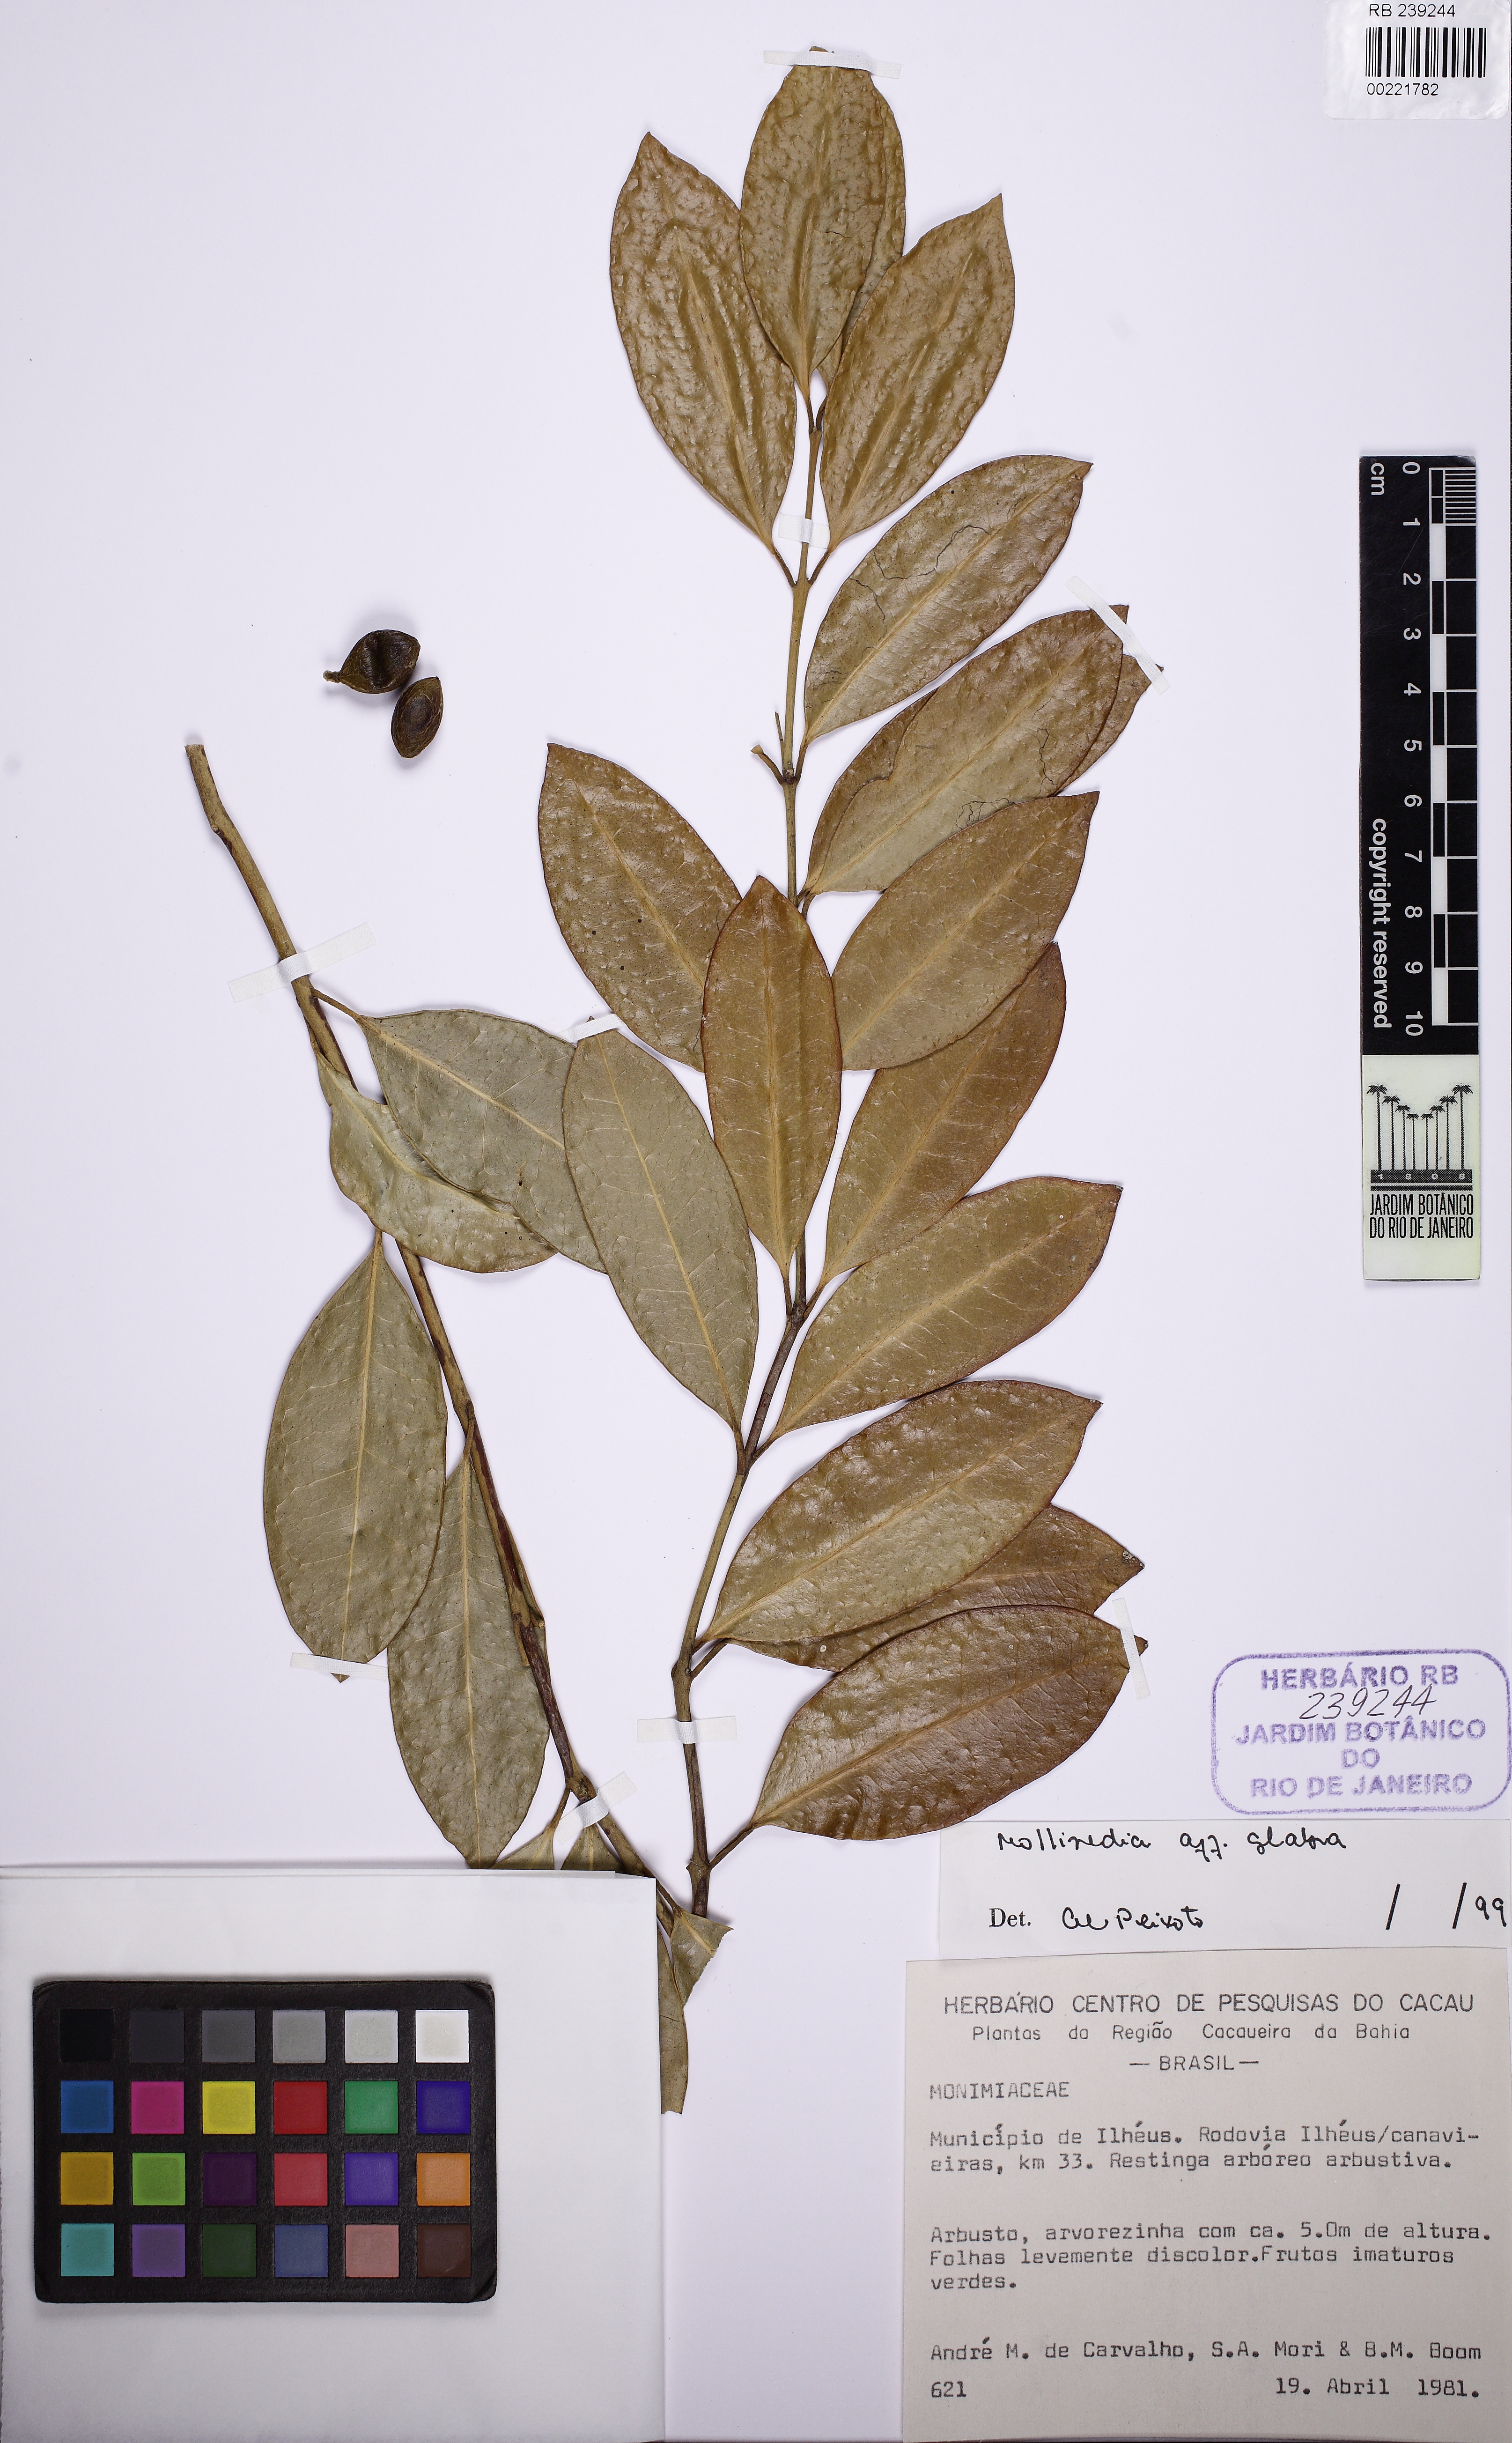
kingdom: Plantae
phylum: Tracheophyta
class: Magnoliopsida
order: Laurales
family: Monimiaceae
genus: Mollinedia
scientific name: Mollinedia aphanantha
